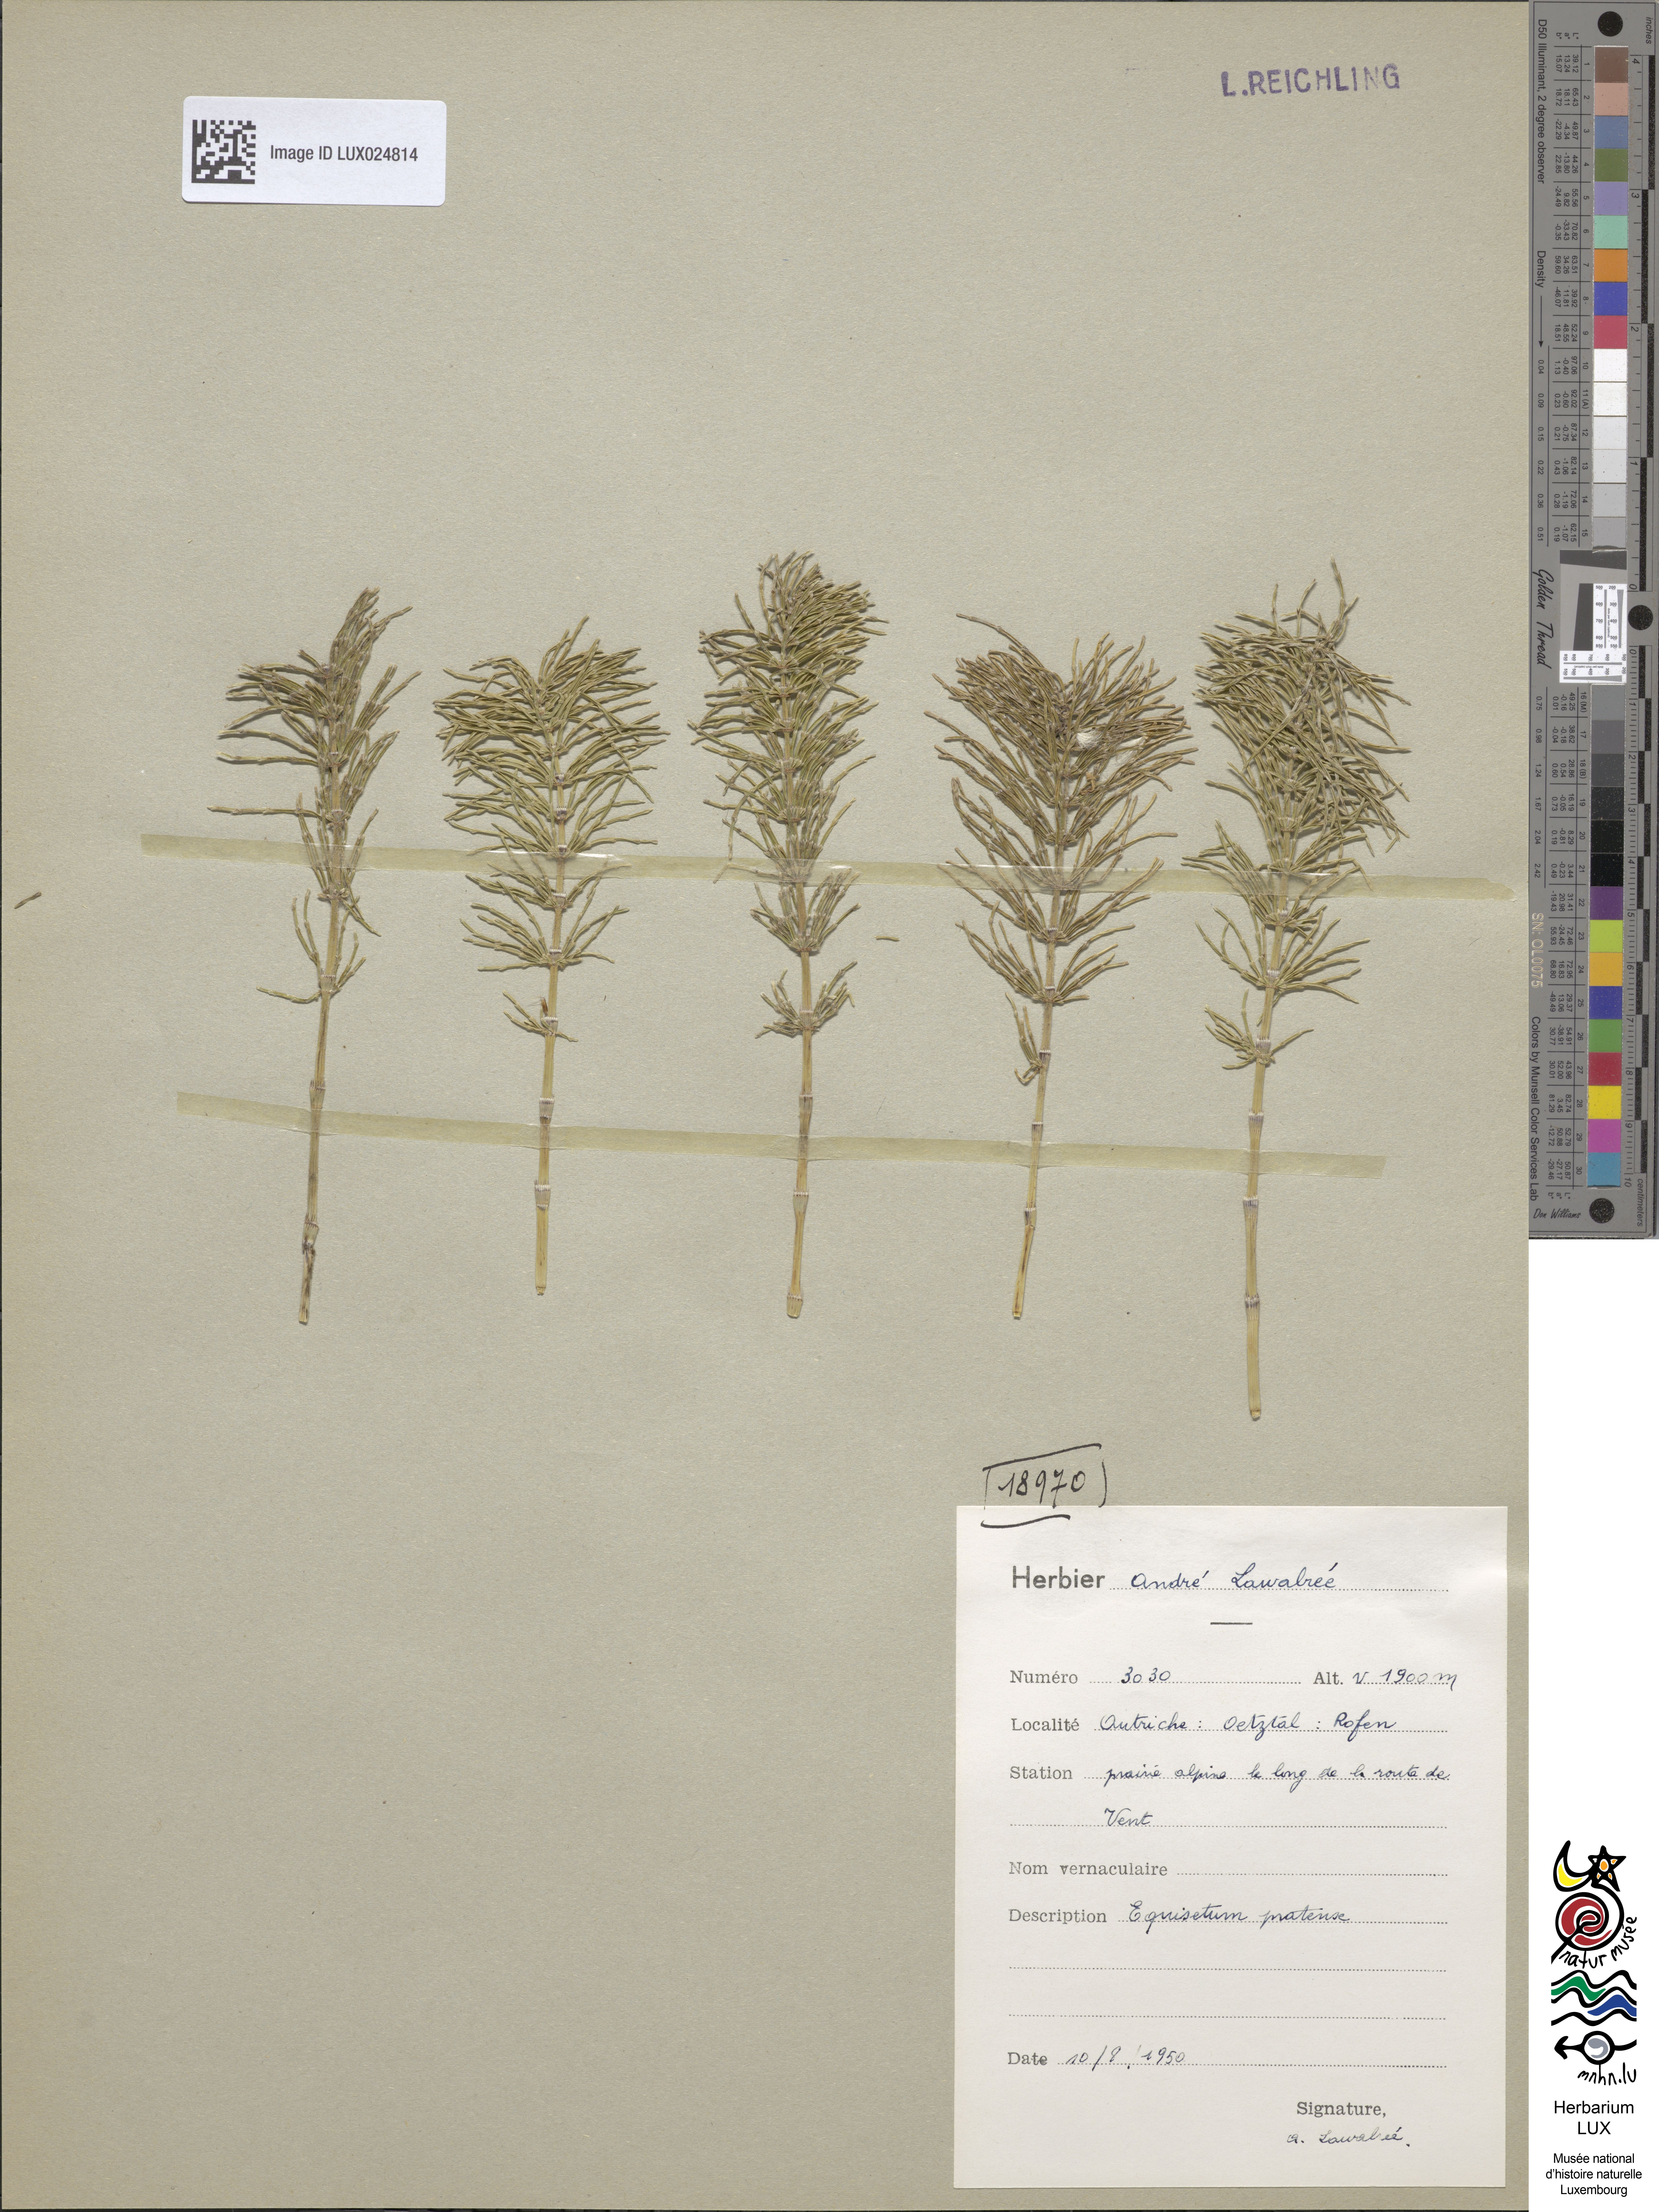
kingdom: Plantae
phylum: Tracheophyta
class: Polypodiopsida
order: Equisetales
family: Equisetaceae
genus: Equisetum
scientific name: Equisetum pratense
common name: Meadow horsetail
